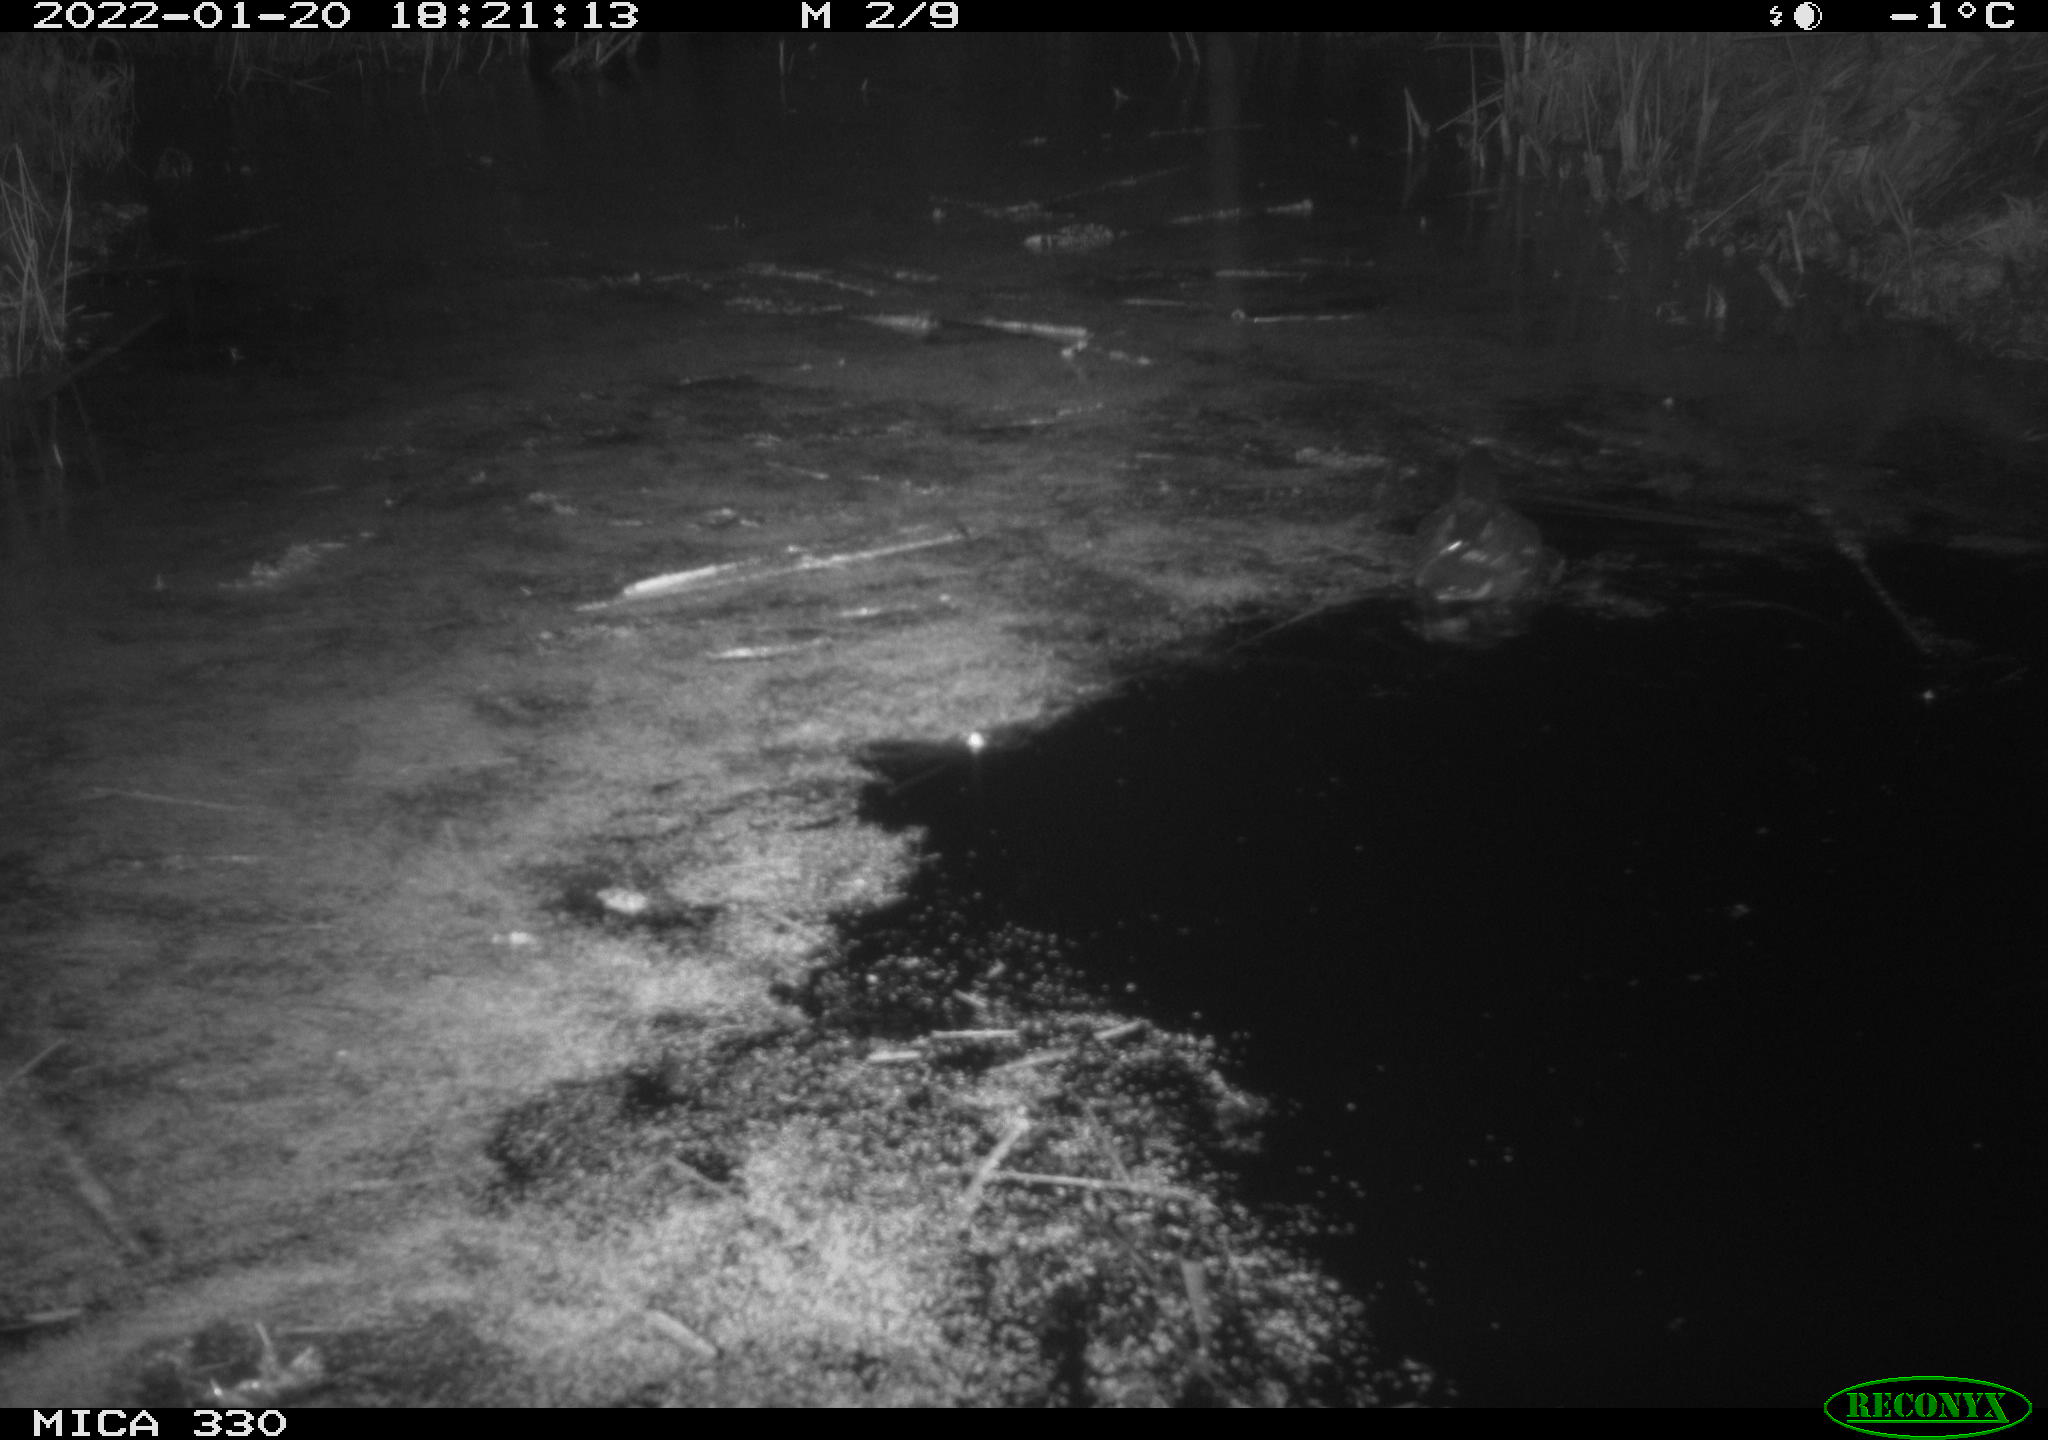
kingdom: Animalia
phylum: Chordata
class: Aves
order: Gruiformes
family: Rallidae
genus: Gallinula
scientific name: Gallinula chloropus
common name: Common moorhen
